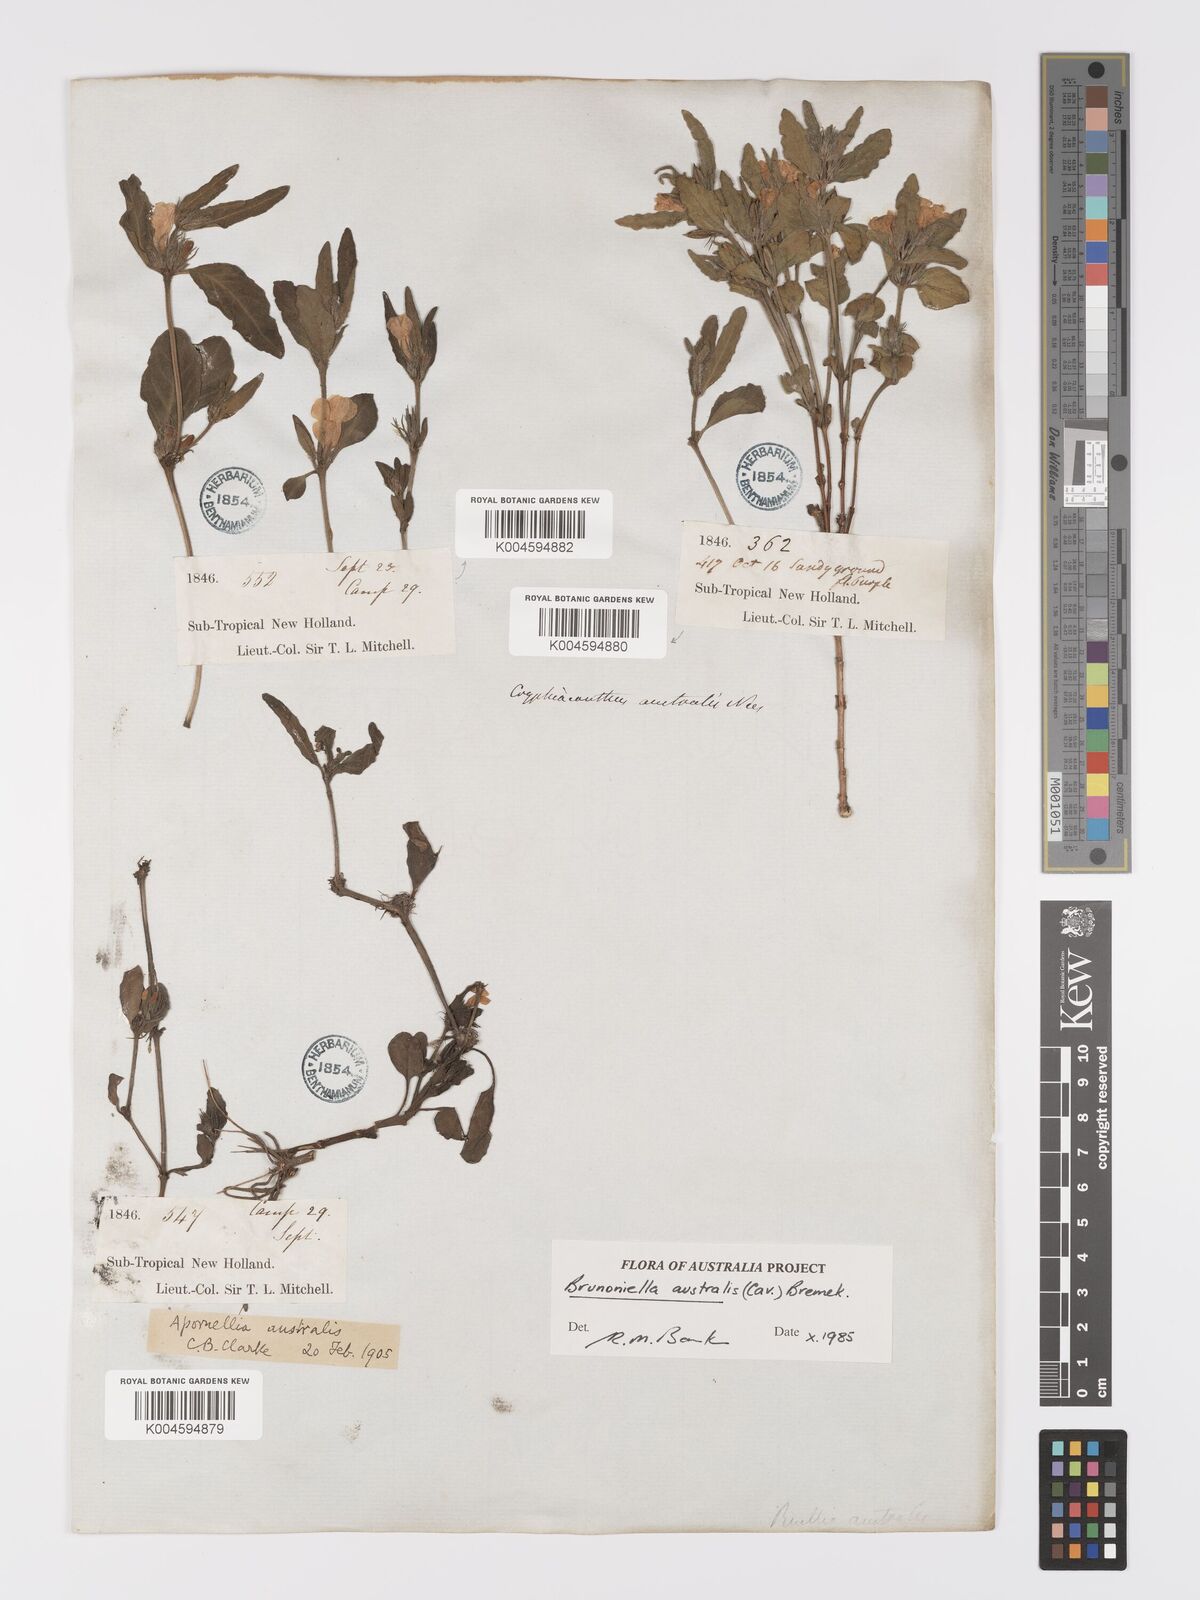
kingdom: Plantae
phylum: Tracheophyta
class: Magnoliopsida
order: Lamiales
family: Acanthaceae
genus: Brunoniella
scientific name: Brunoniella australis
